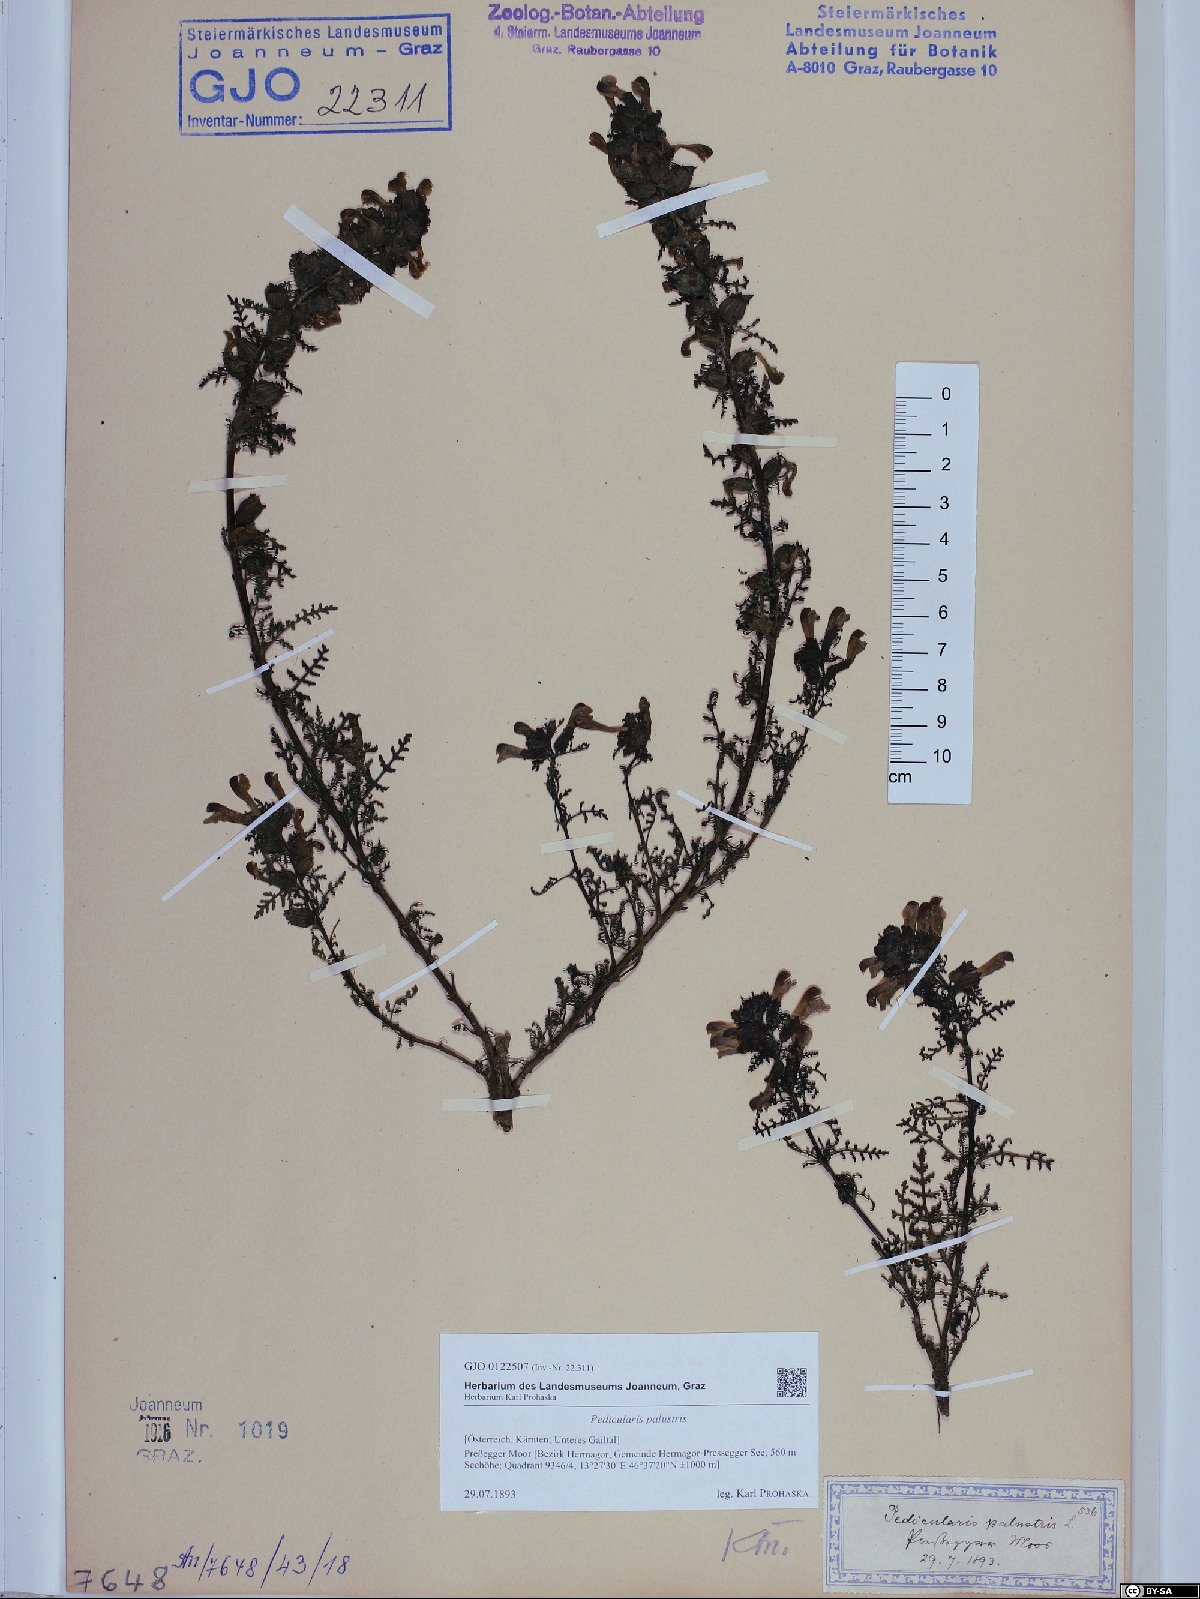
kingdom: Plantae
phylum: Tracheophyta
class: Magnoliopsida
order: Lamiales
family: Orobanchaceae
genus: Pedicularis
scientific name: Pedicularis palustris
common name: Marsh lousewort
